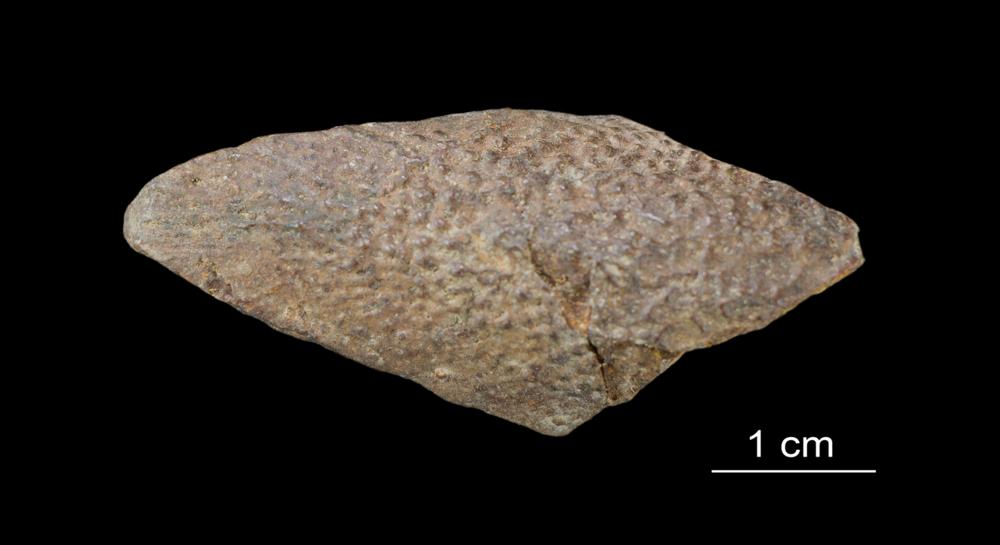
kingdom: Animalia
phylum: Chordata
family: Asterolepididae
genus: Asterolepis
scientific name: Asterolepis ornata
